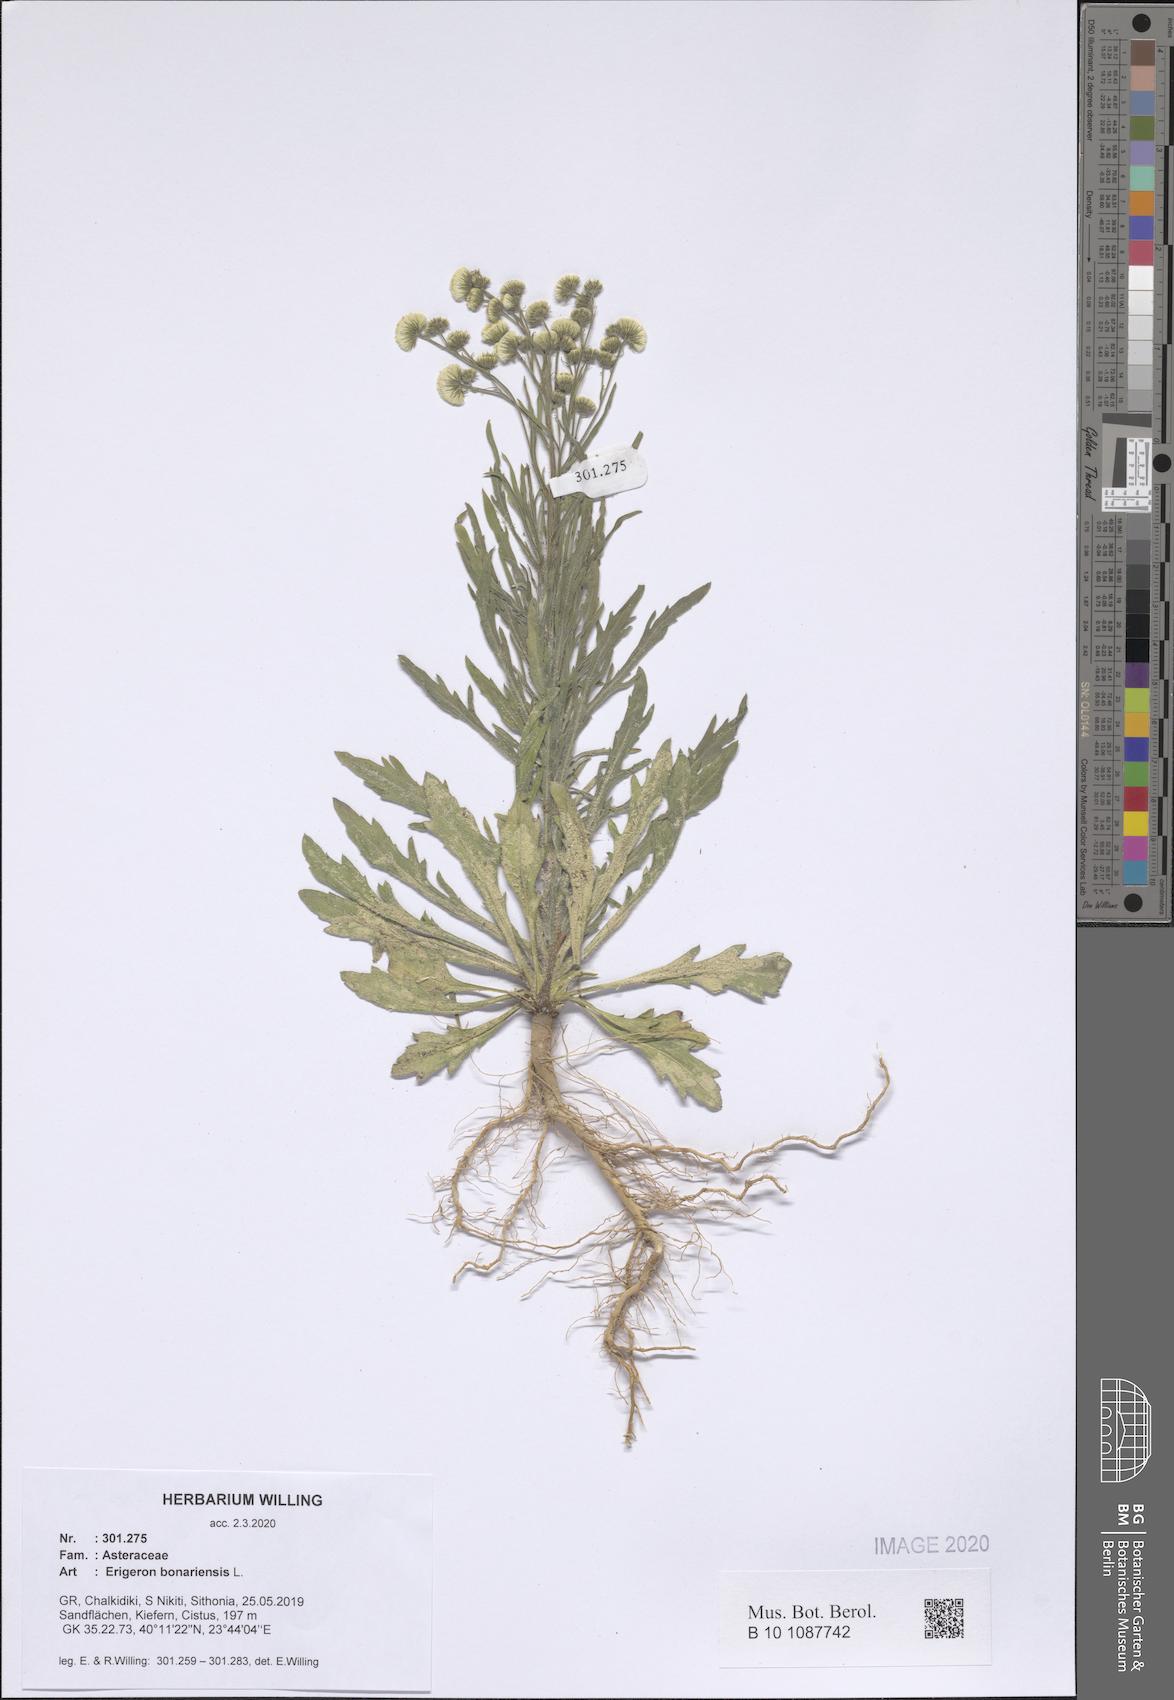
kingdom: Plantae
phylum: Tracheophyta
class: Magnoliopsida
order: Asterales
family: Asteraceae
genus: Erigeron
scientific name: Erigeron bonariensis
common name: Argentine fleabane
